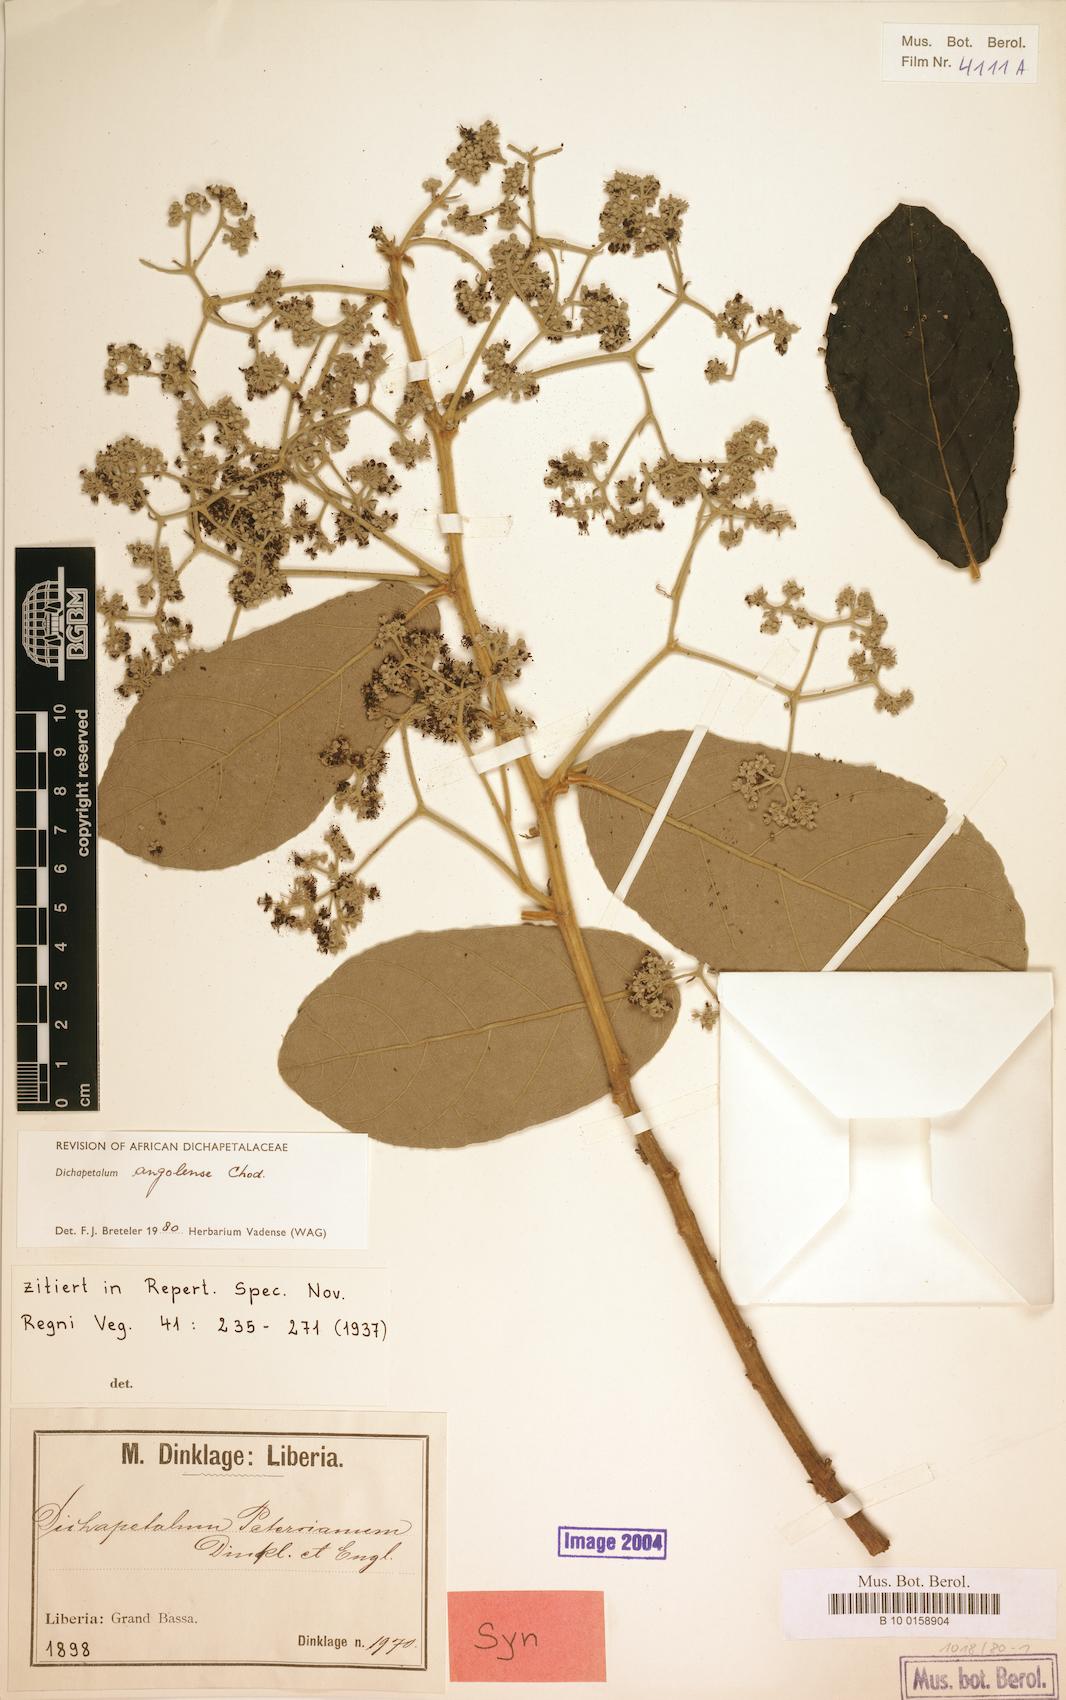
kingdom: Plantae
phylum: Tracheophyta
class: Magnoliopsida
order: Malpighiales
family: Dichapetalaceae
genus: Dichapetalum
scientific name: Dichapetalum angolense
